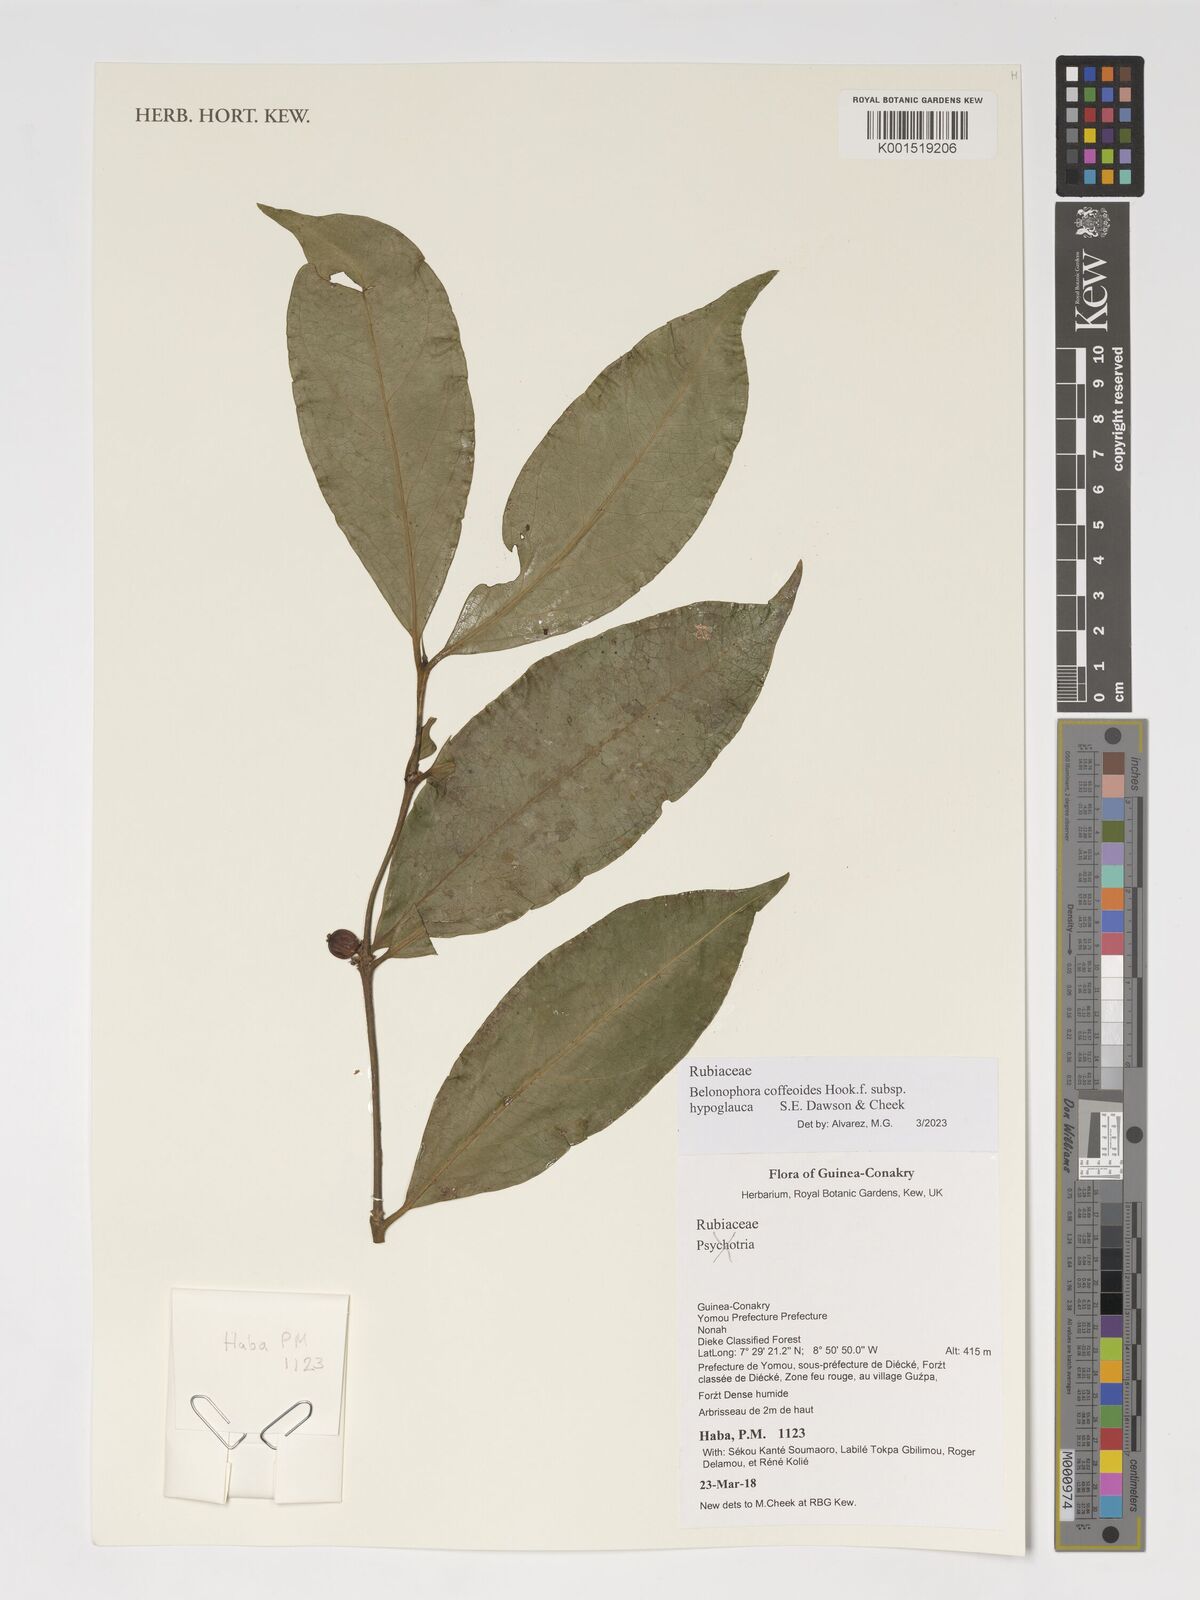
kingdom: Plantae
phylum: Tracheophyta
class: Magnoliopsida
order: Gentianales
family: Rubiaceae
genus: Belonophora
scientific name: Belonophora coffeoides
